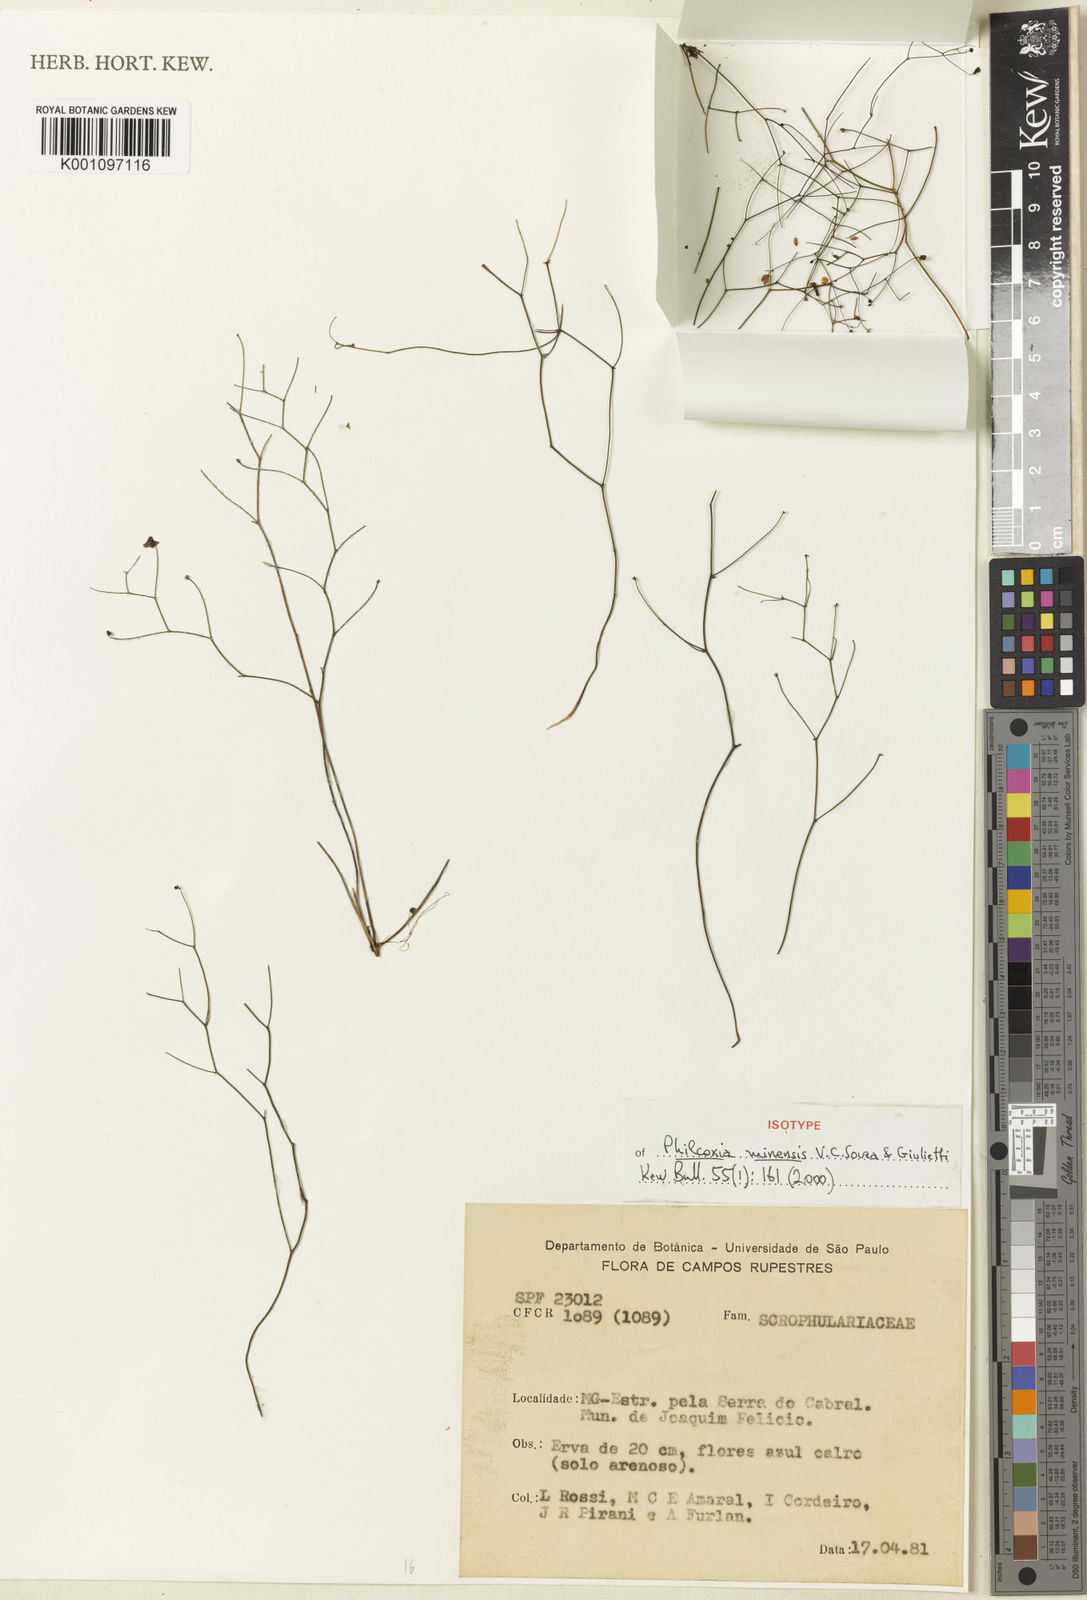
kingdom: Plantae
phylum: Tracheophyta
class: Magnoliopsida
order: Lamiales
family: Plantaginaceae
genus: Philcoxia
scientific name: Philcoxia minensis
